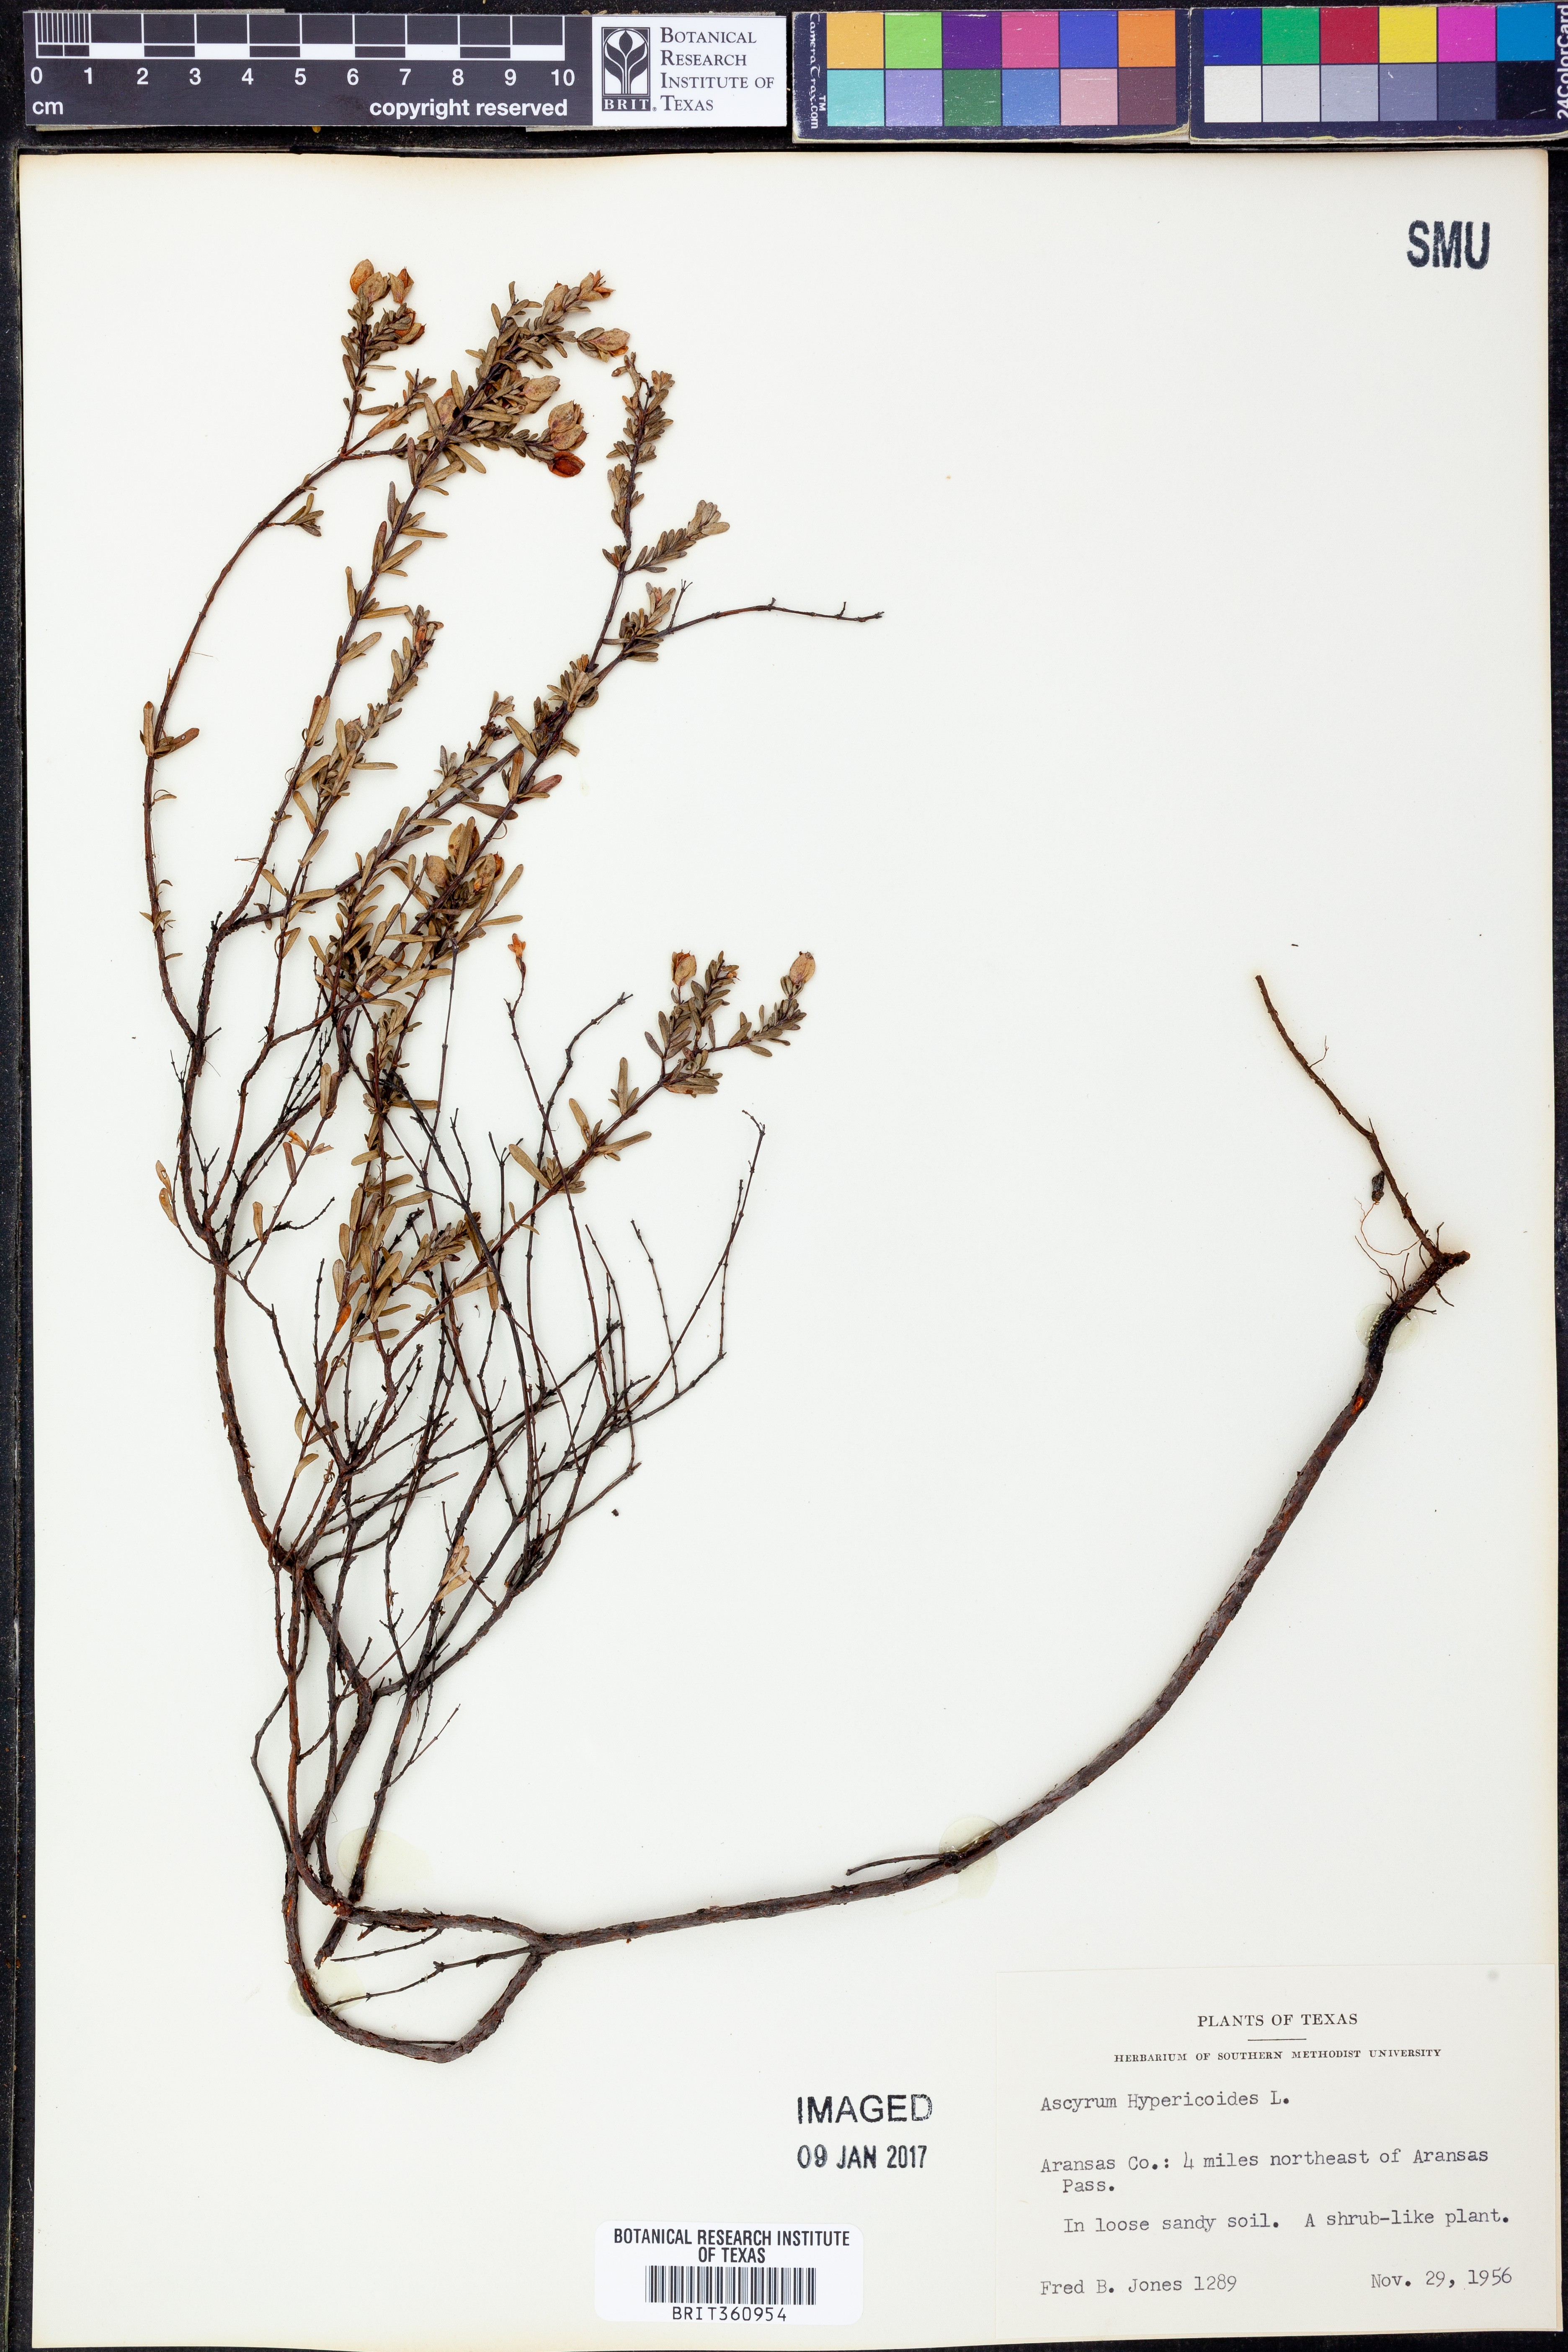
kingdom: Plantae
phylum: Tracheophyta
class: Magnoliopsida
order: Malpighiales
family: Hypericaceae
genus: Hypericum
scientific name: Hypericum hypericoides
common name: St. andrew's cross
